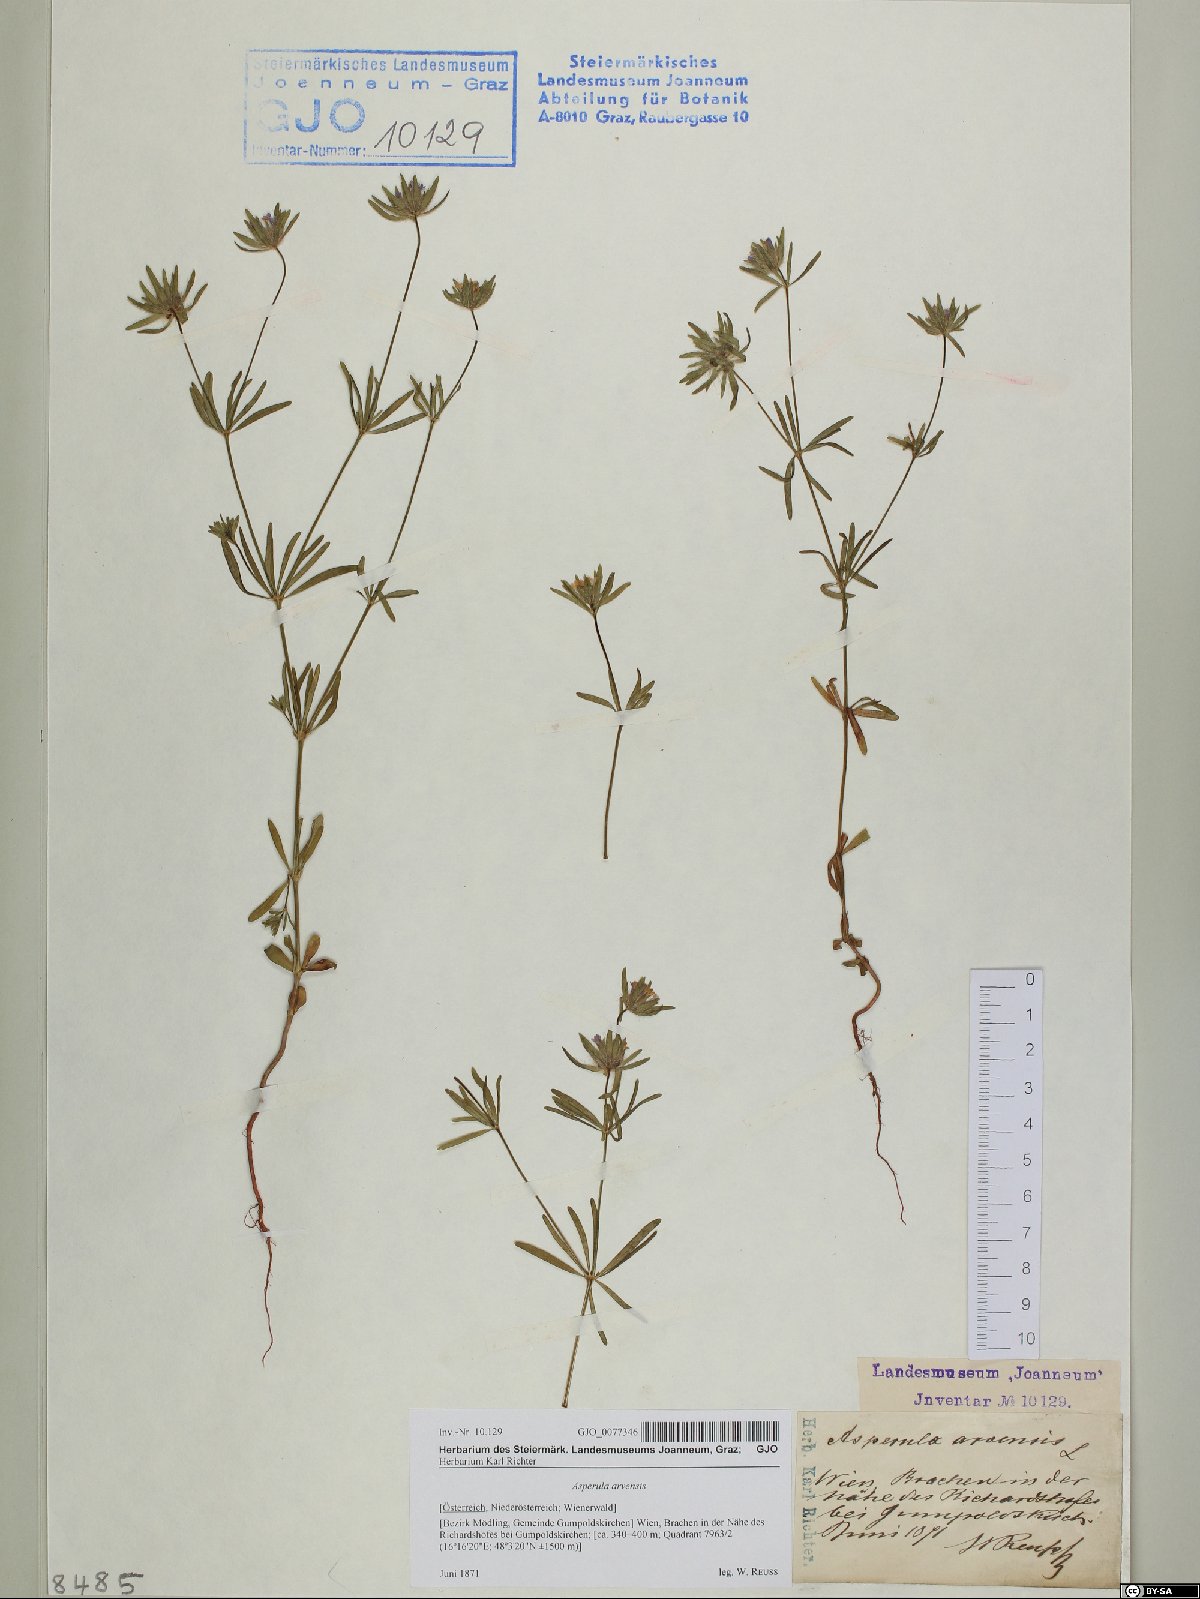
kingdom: Plantae
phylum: Tracheophyta
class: Magnoliopsida
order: Gentianales
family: Rubiaceae
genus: Asperula
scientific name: Asperula arvensis
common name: Blue woodruff
